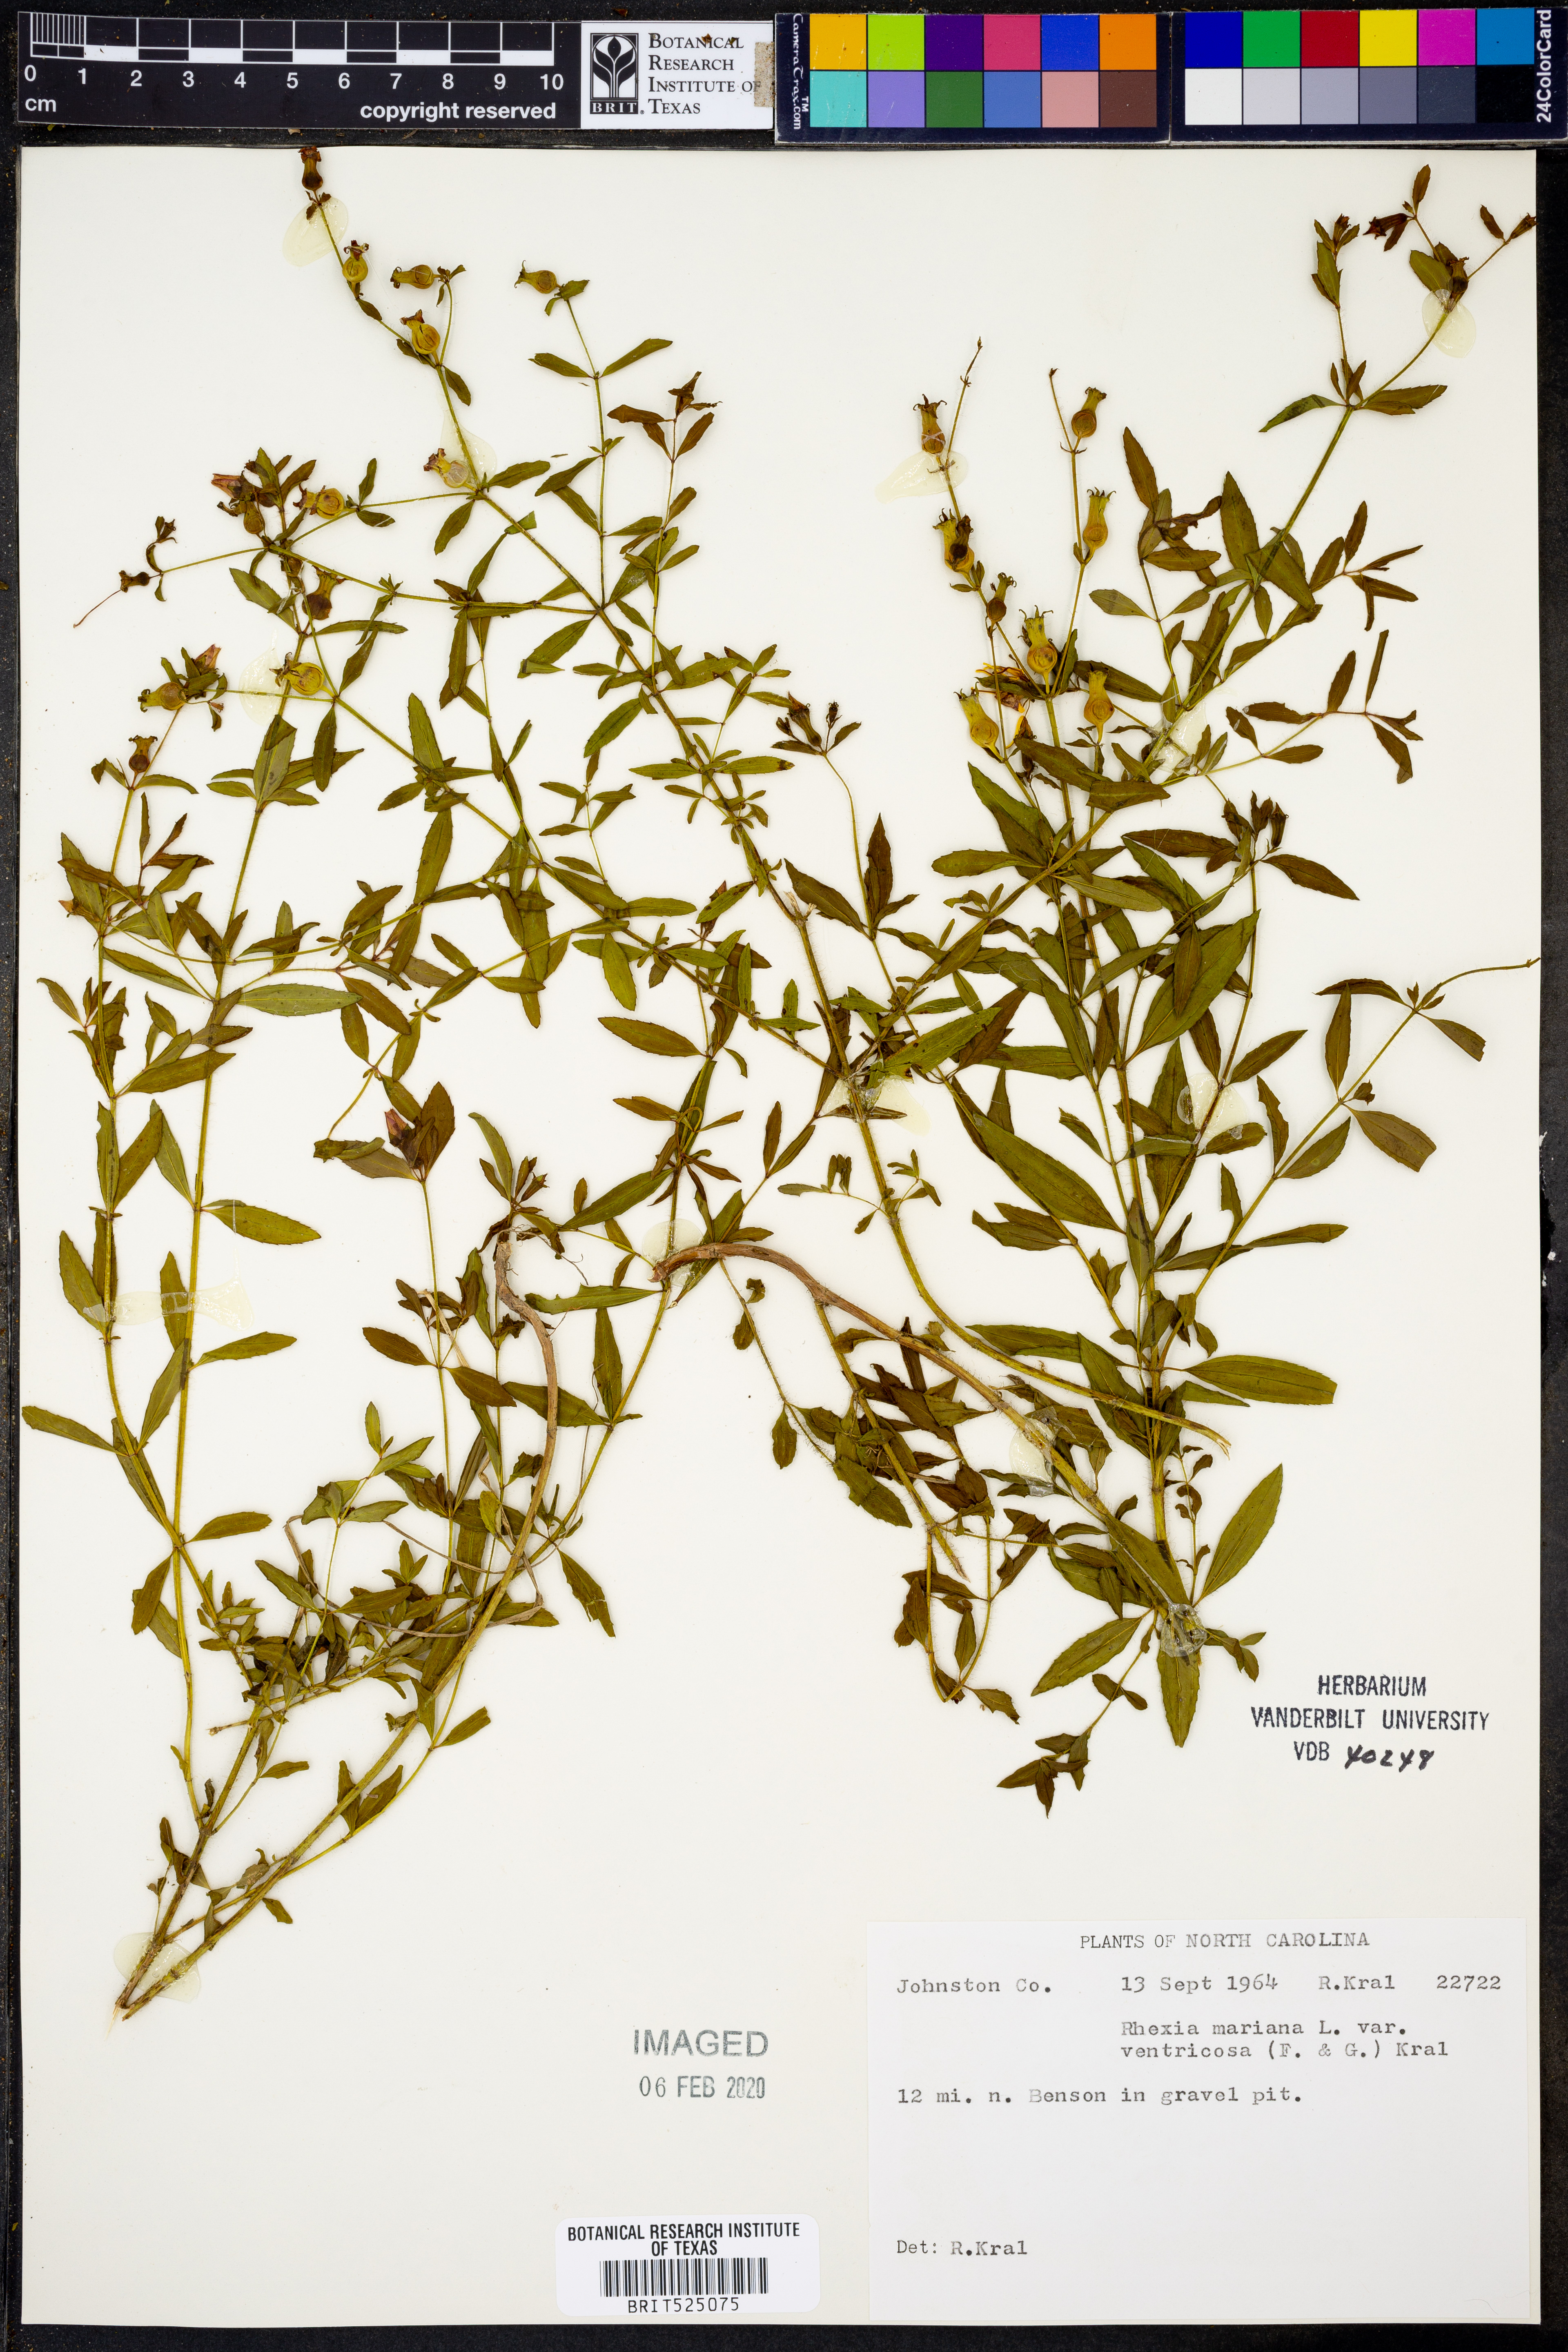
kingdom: Plantae
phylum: Tracheophyta
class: Magnoliopsida
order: Myrtales
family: Melastomataceae
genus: Rhexia
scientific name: Rhexia ventricosa
